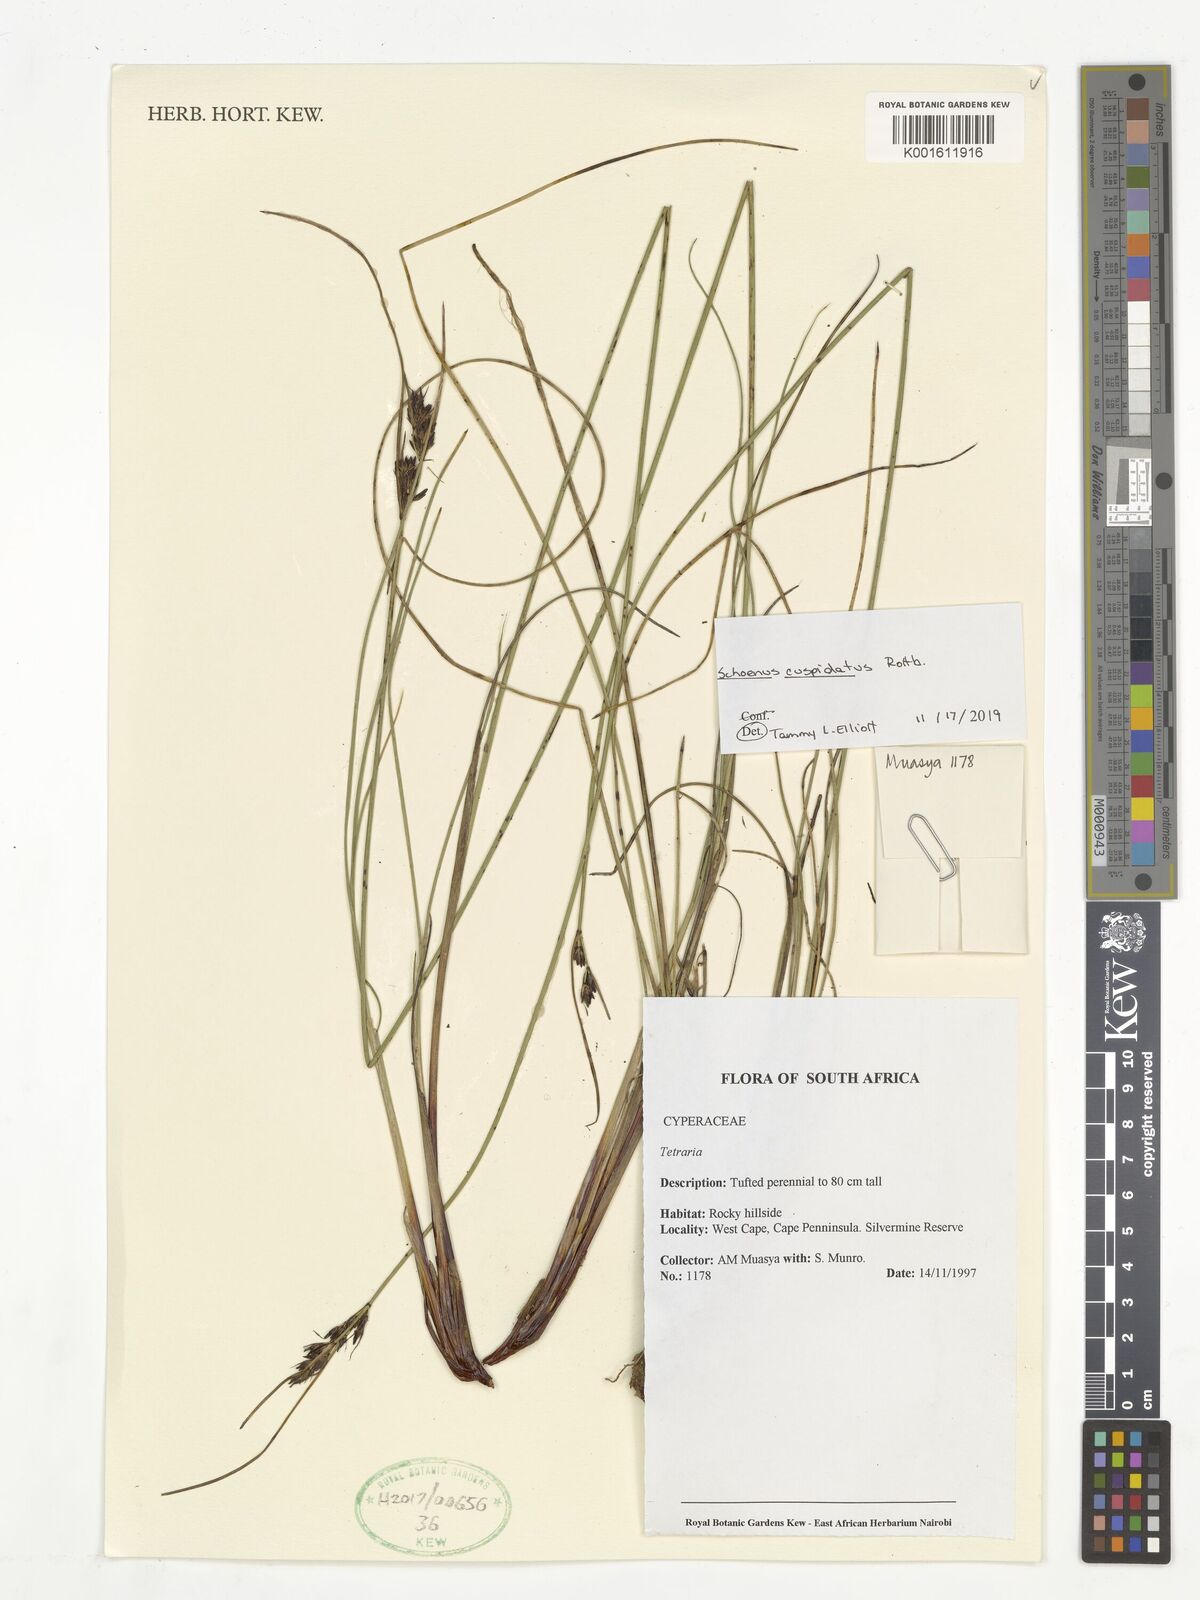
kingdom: Plantae
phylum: Tracheophyta
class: Liliopsida
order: Poales
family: Cyperaceae
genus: Schoenus
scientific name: Schoenus cuspidatus
